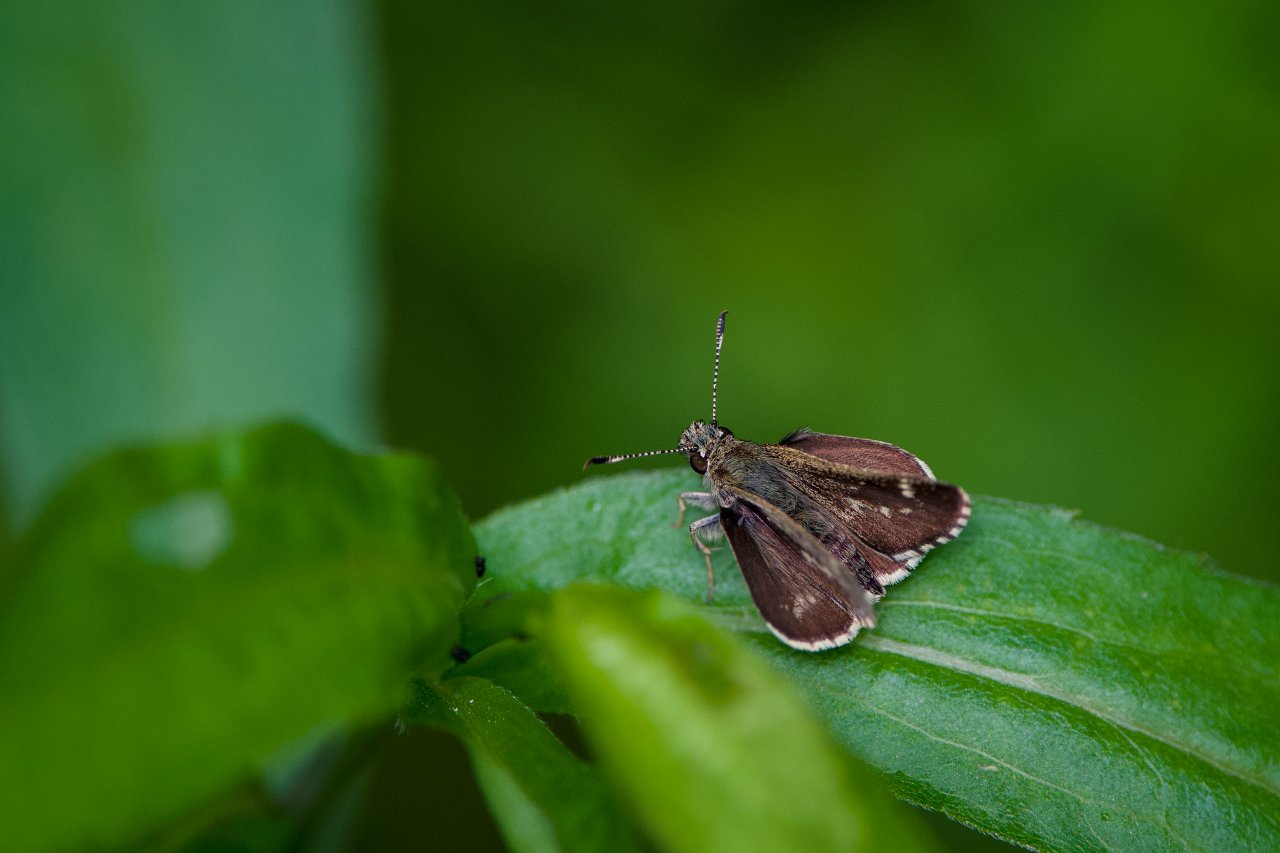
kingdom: Animalia
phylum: Arthropoda
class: Insecta
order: Lepidoptera
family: Hesperiidae
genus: Mastor
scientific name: Mastor hegon
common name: Pepper and Salt Skipper
